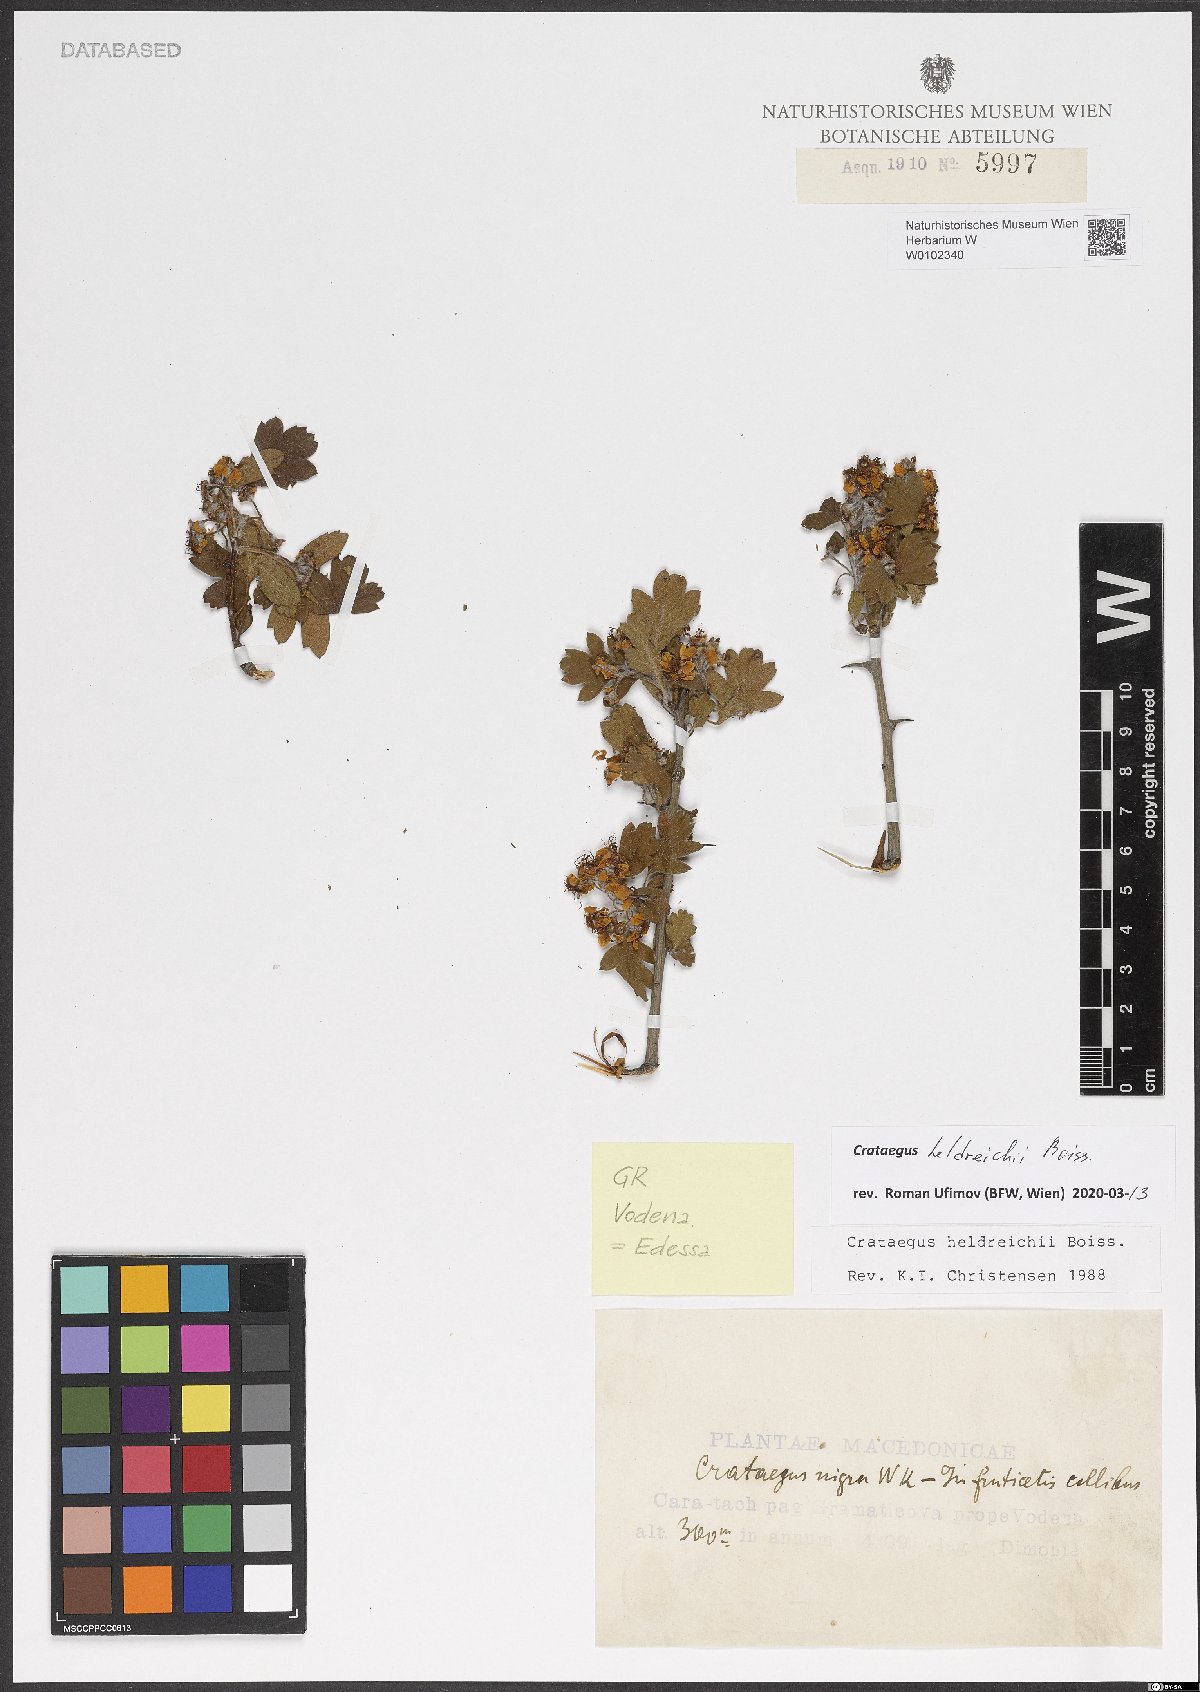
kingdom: Plantae
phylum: Tracheophyta
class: Magnoliopsida
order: Rosales
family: Rosaceae
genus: Crataegus
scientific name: Crataegus heldreichii
